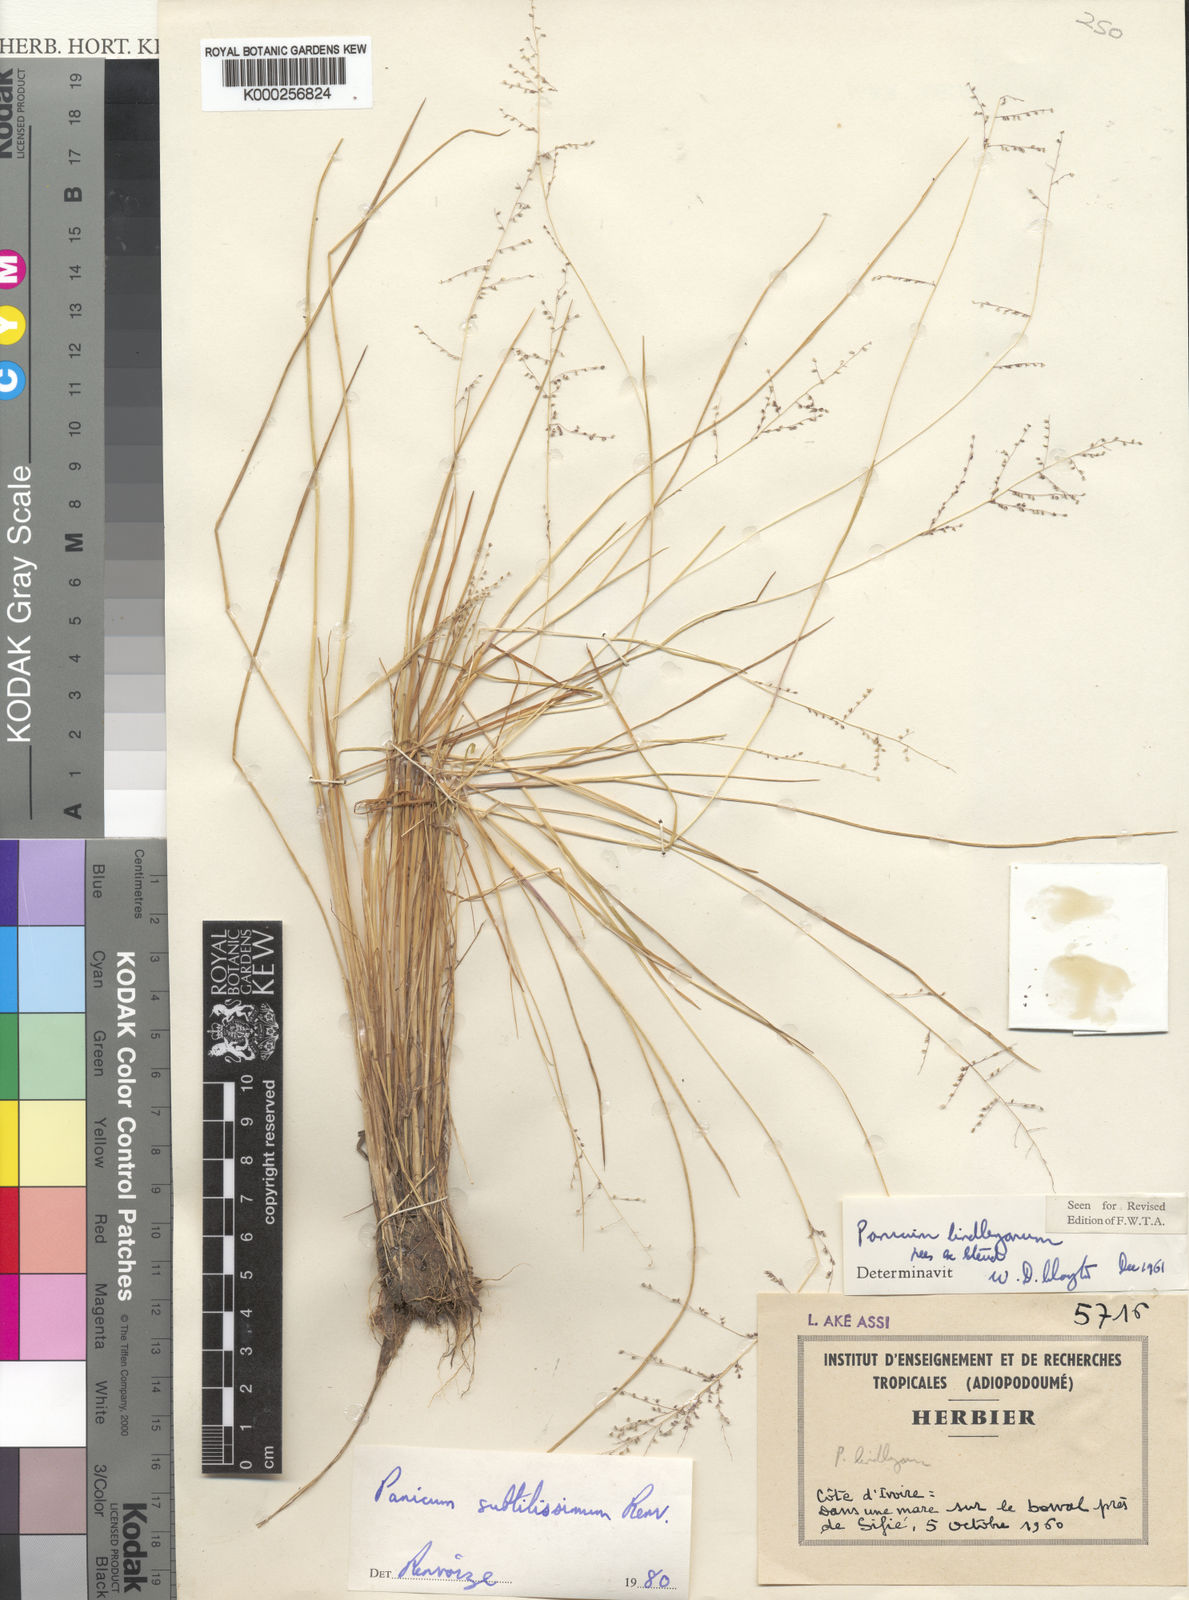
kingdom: Plantae
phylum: Tracheophyta
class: Liliopsida
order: Poales
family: Poaceae
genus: Panicum
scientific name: Panicum subtilissimum
